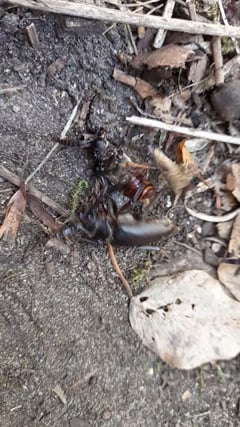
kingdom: Animalia
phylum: Arthropoda
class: Insecta
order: Coleoptera
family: Cerambycidae
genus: Prionus
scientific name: Prionus coriarius
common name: Tanner beetle
